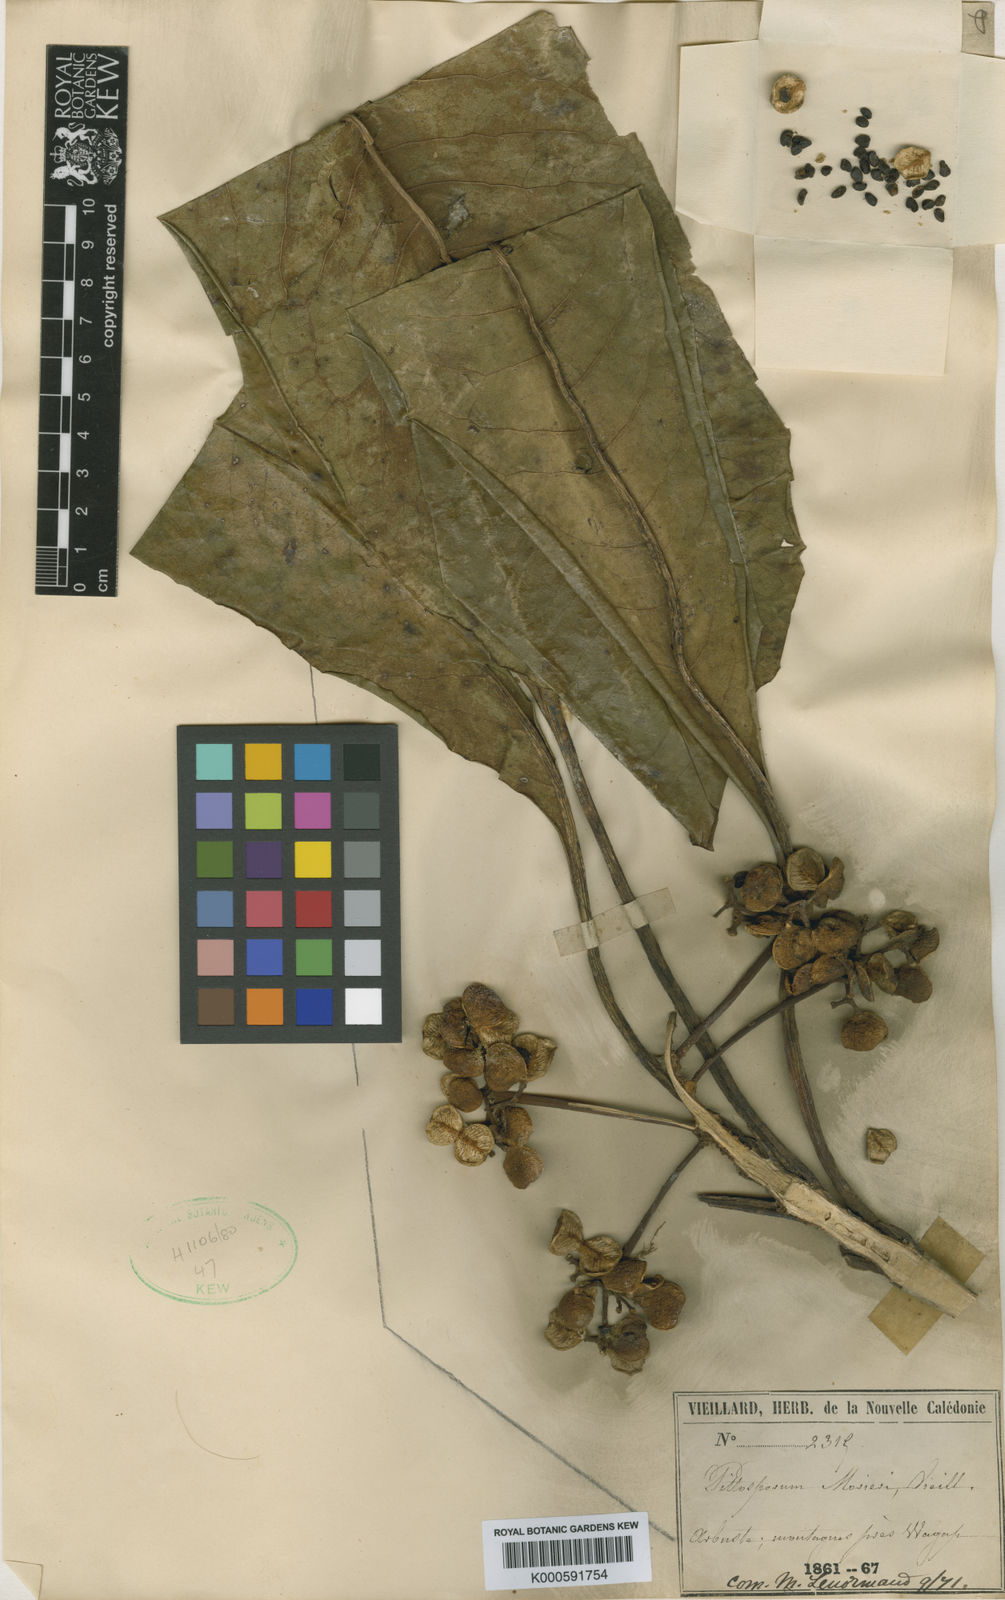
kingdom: Plantae
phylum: Tracheophyta
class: Magnoliopsida
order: Apiales
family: Pittosporaceae
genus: Pittosporum
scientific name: Pittosporum morierei
